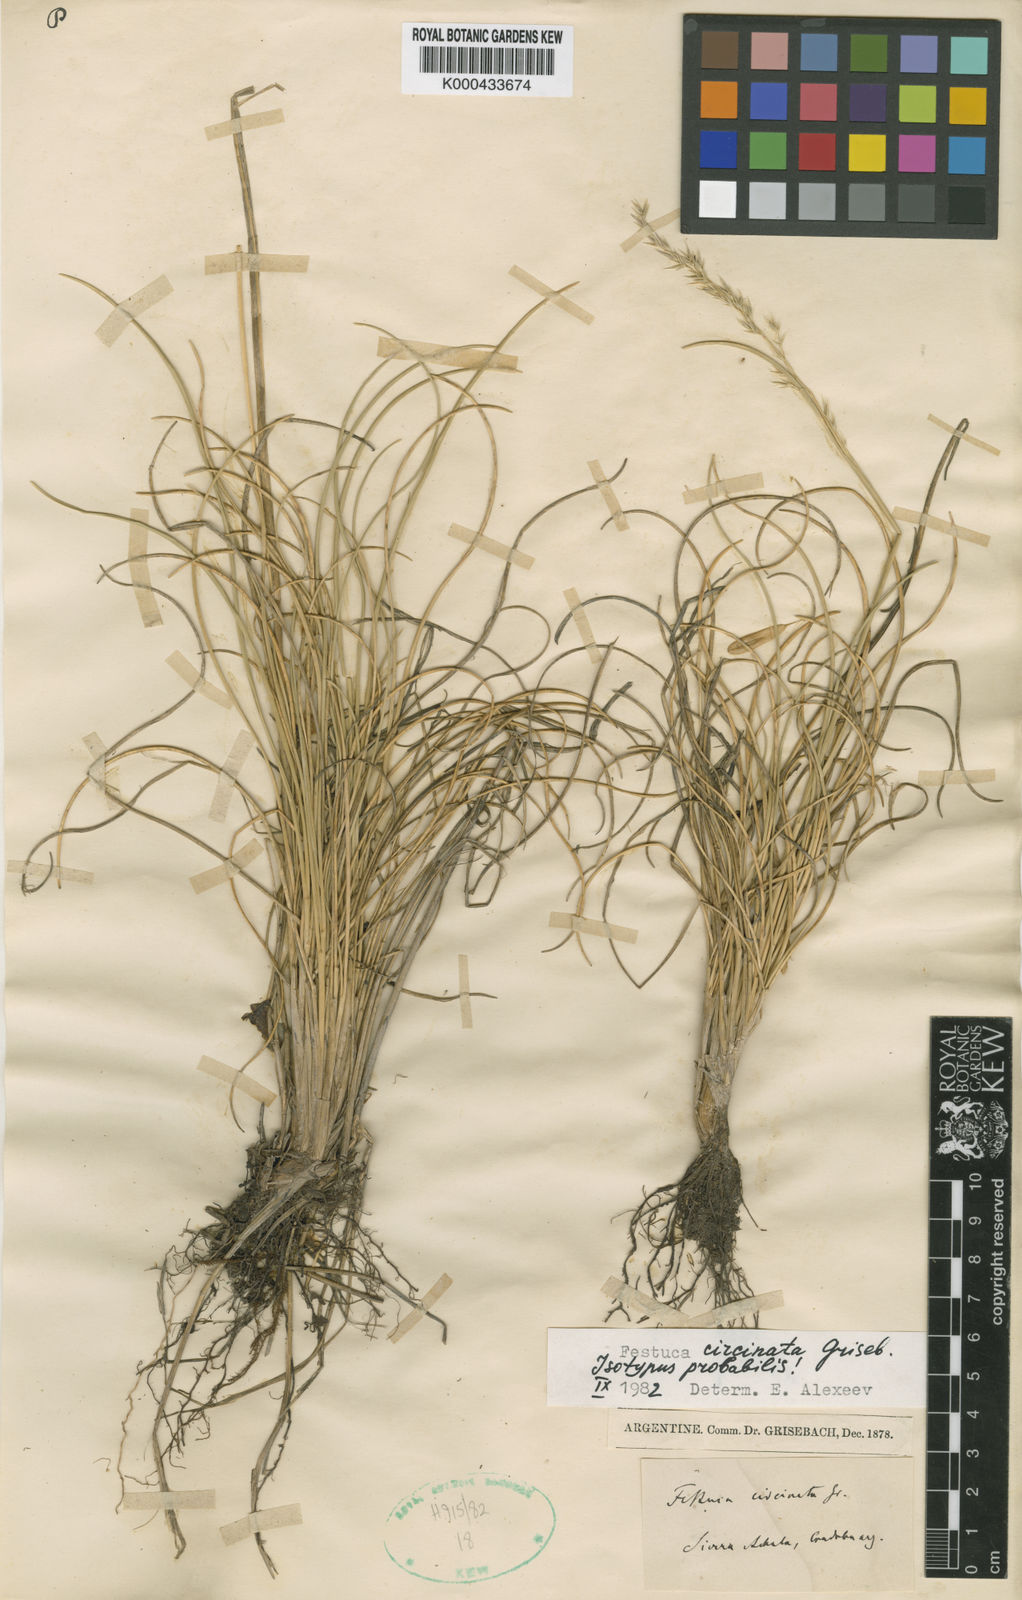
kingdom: Plantae
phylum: Tracheophyta
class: Liliopsida
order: Poales
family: Poaceae
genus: Festuca
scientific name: Festuca circinata
